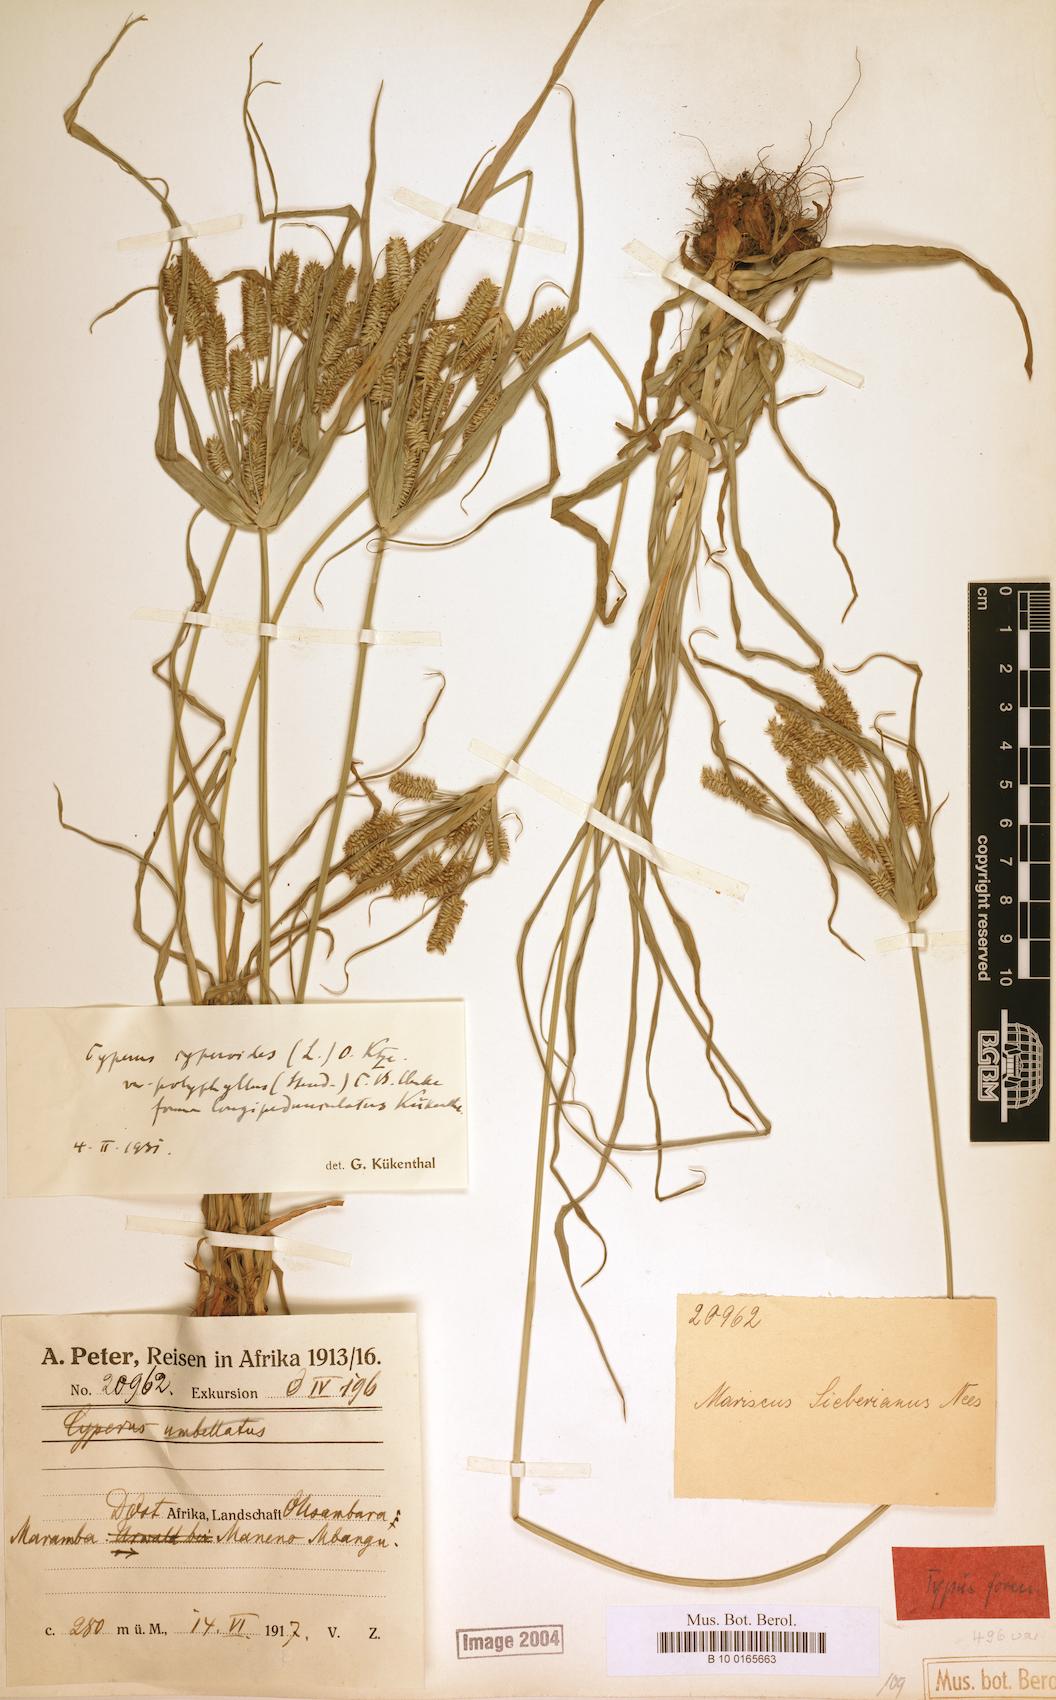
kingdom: Plantae
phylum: Tracheophyta
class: Liliopsida
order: Poales
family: Cyperaceae
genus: Cyperus
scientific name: Cyperus cyperoides
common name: Pacific island flat sedge
